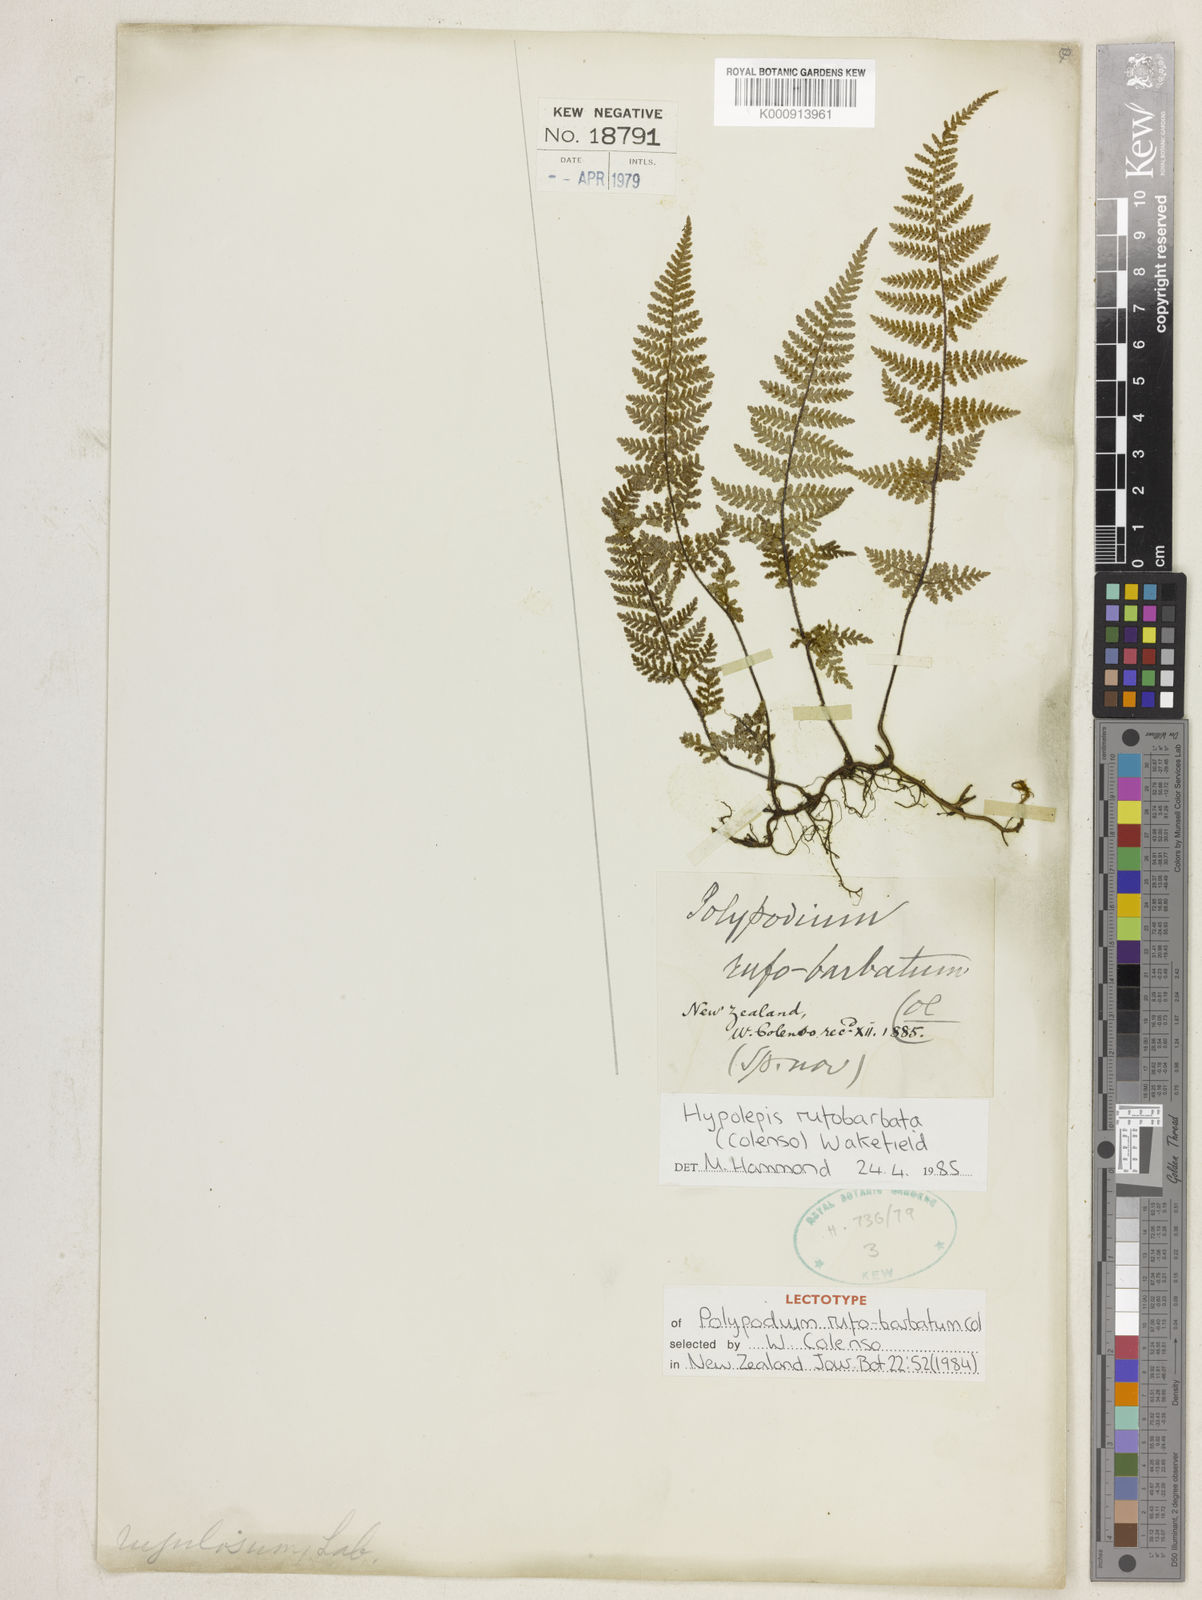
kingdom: Plantae
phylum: Tracheophyta
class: Polypodiopsida
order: Polypodiales
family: Dennstaedtiaceae
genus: Hypolepis
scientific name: Hypolepis rugosula
